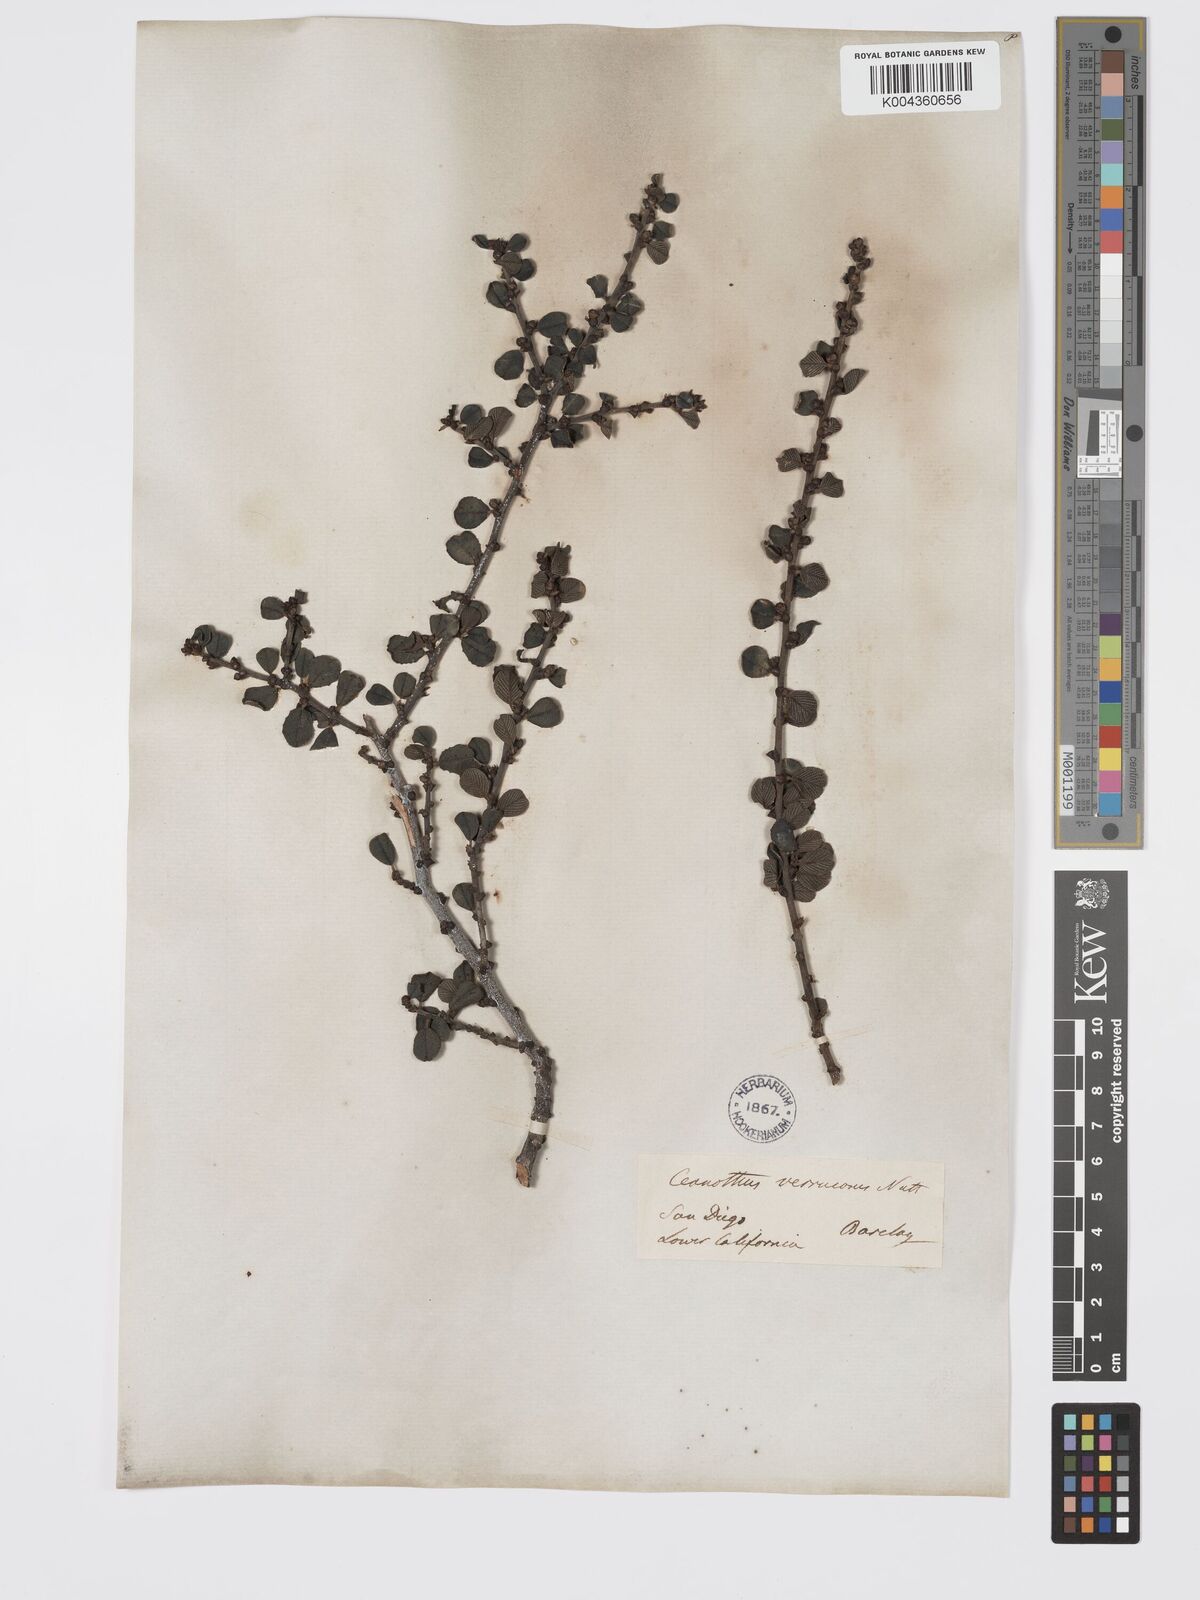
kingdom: Plantae
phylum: Tracheophyta
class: Magnoliopsida
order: Rosales
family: Rhamnaceae
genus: Ceanothus
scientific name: Ceanothus verrucosus
